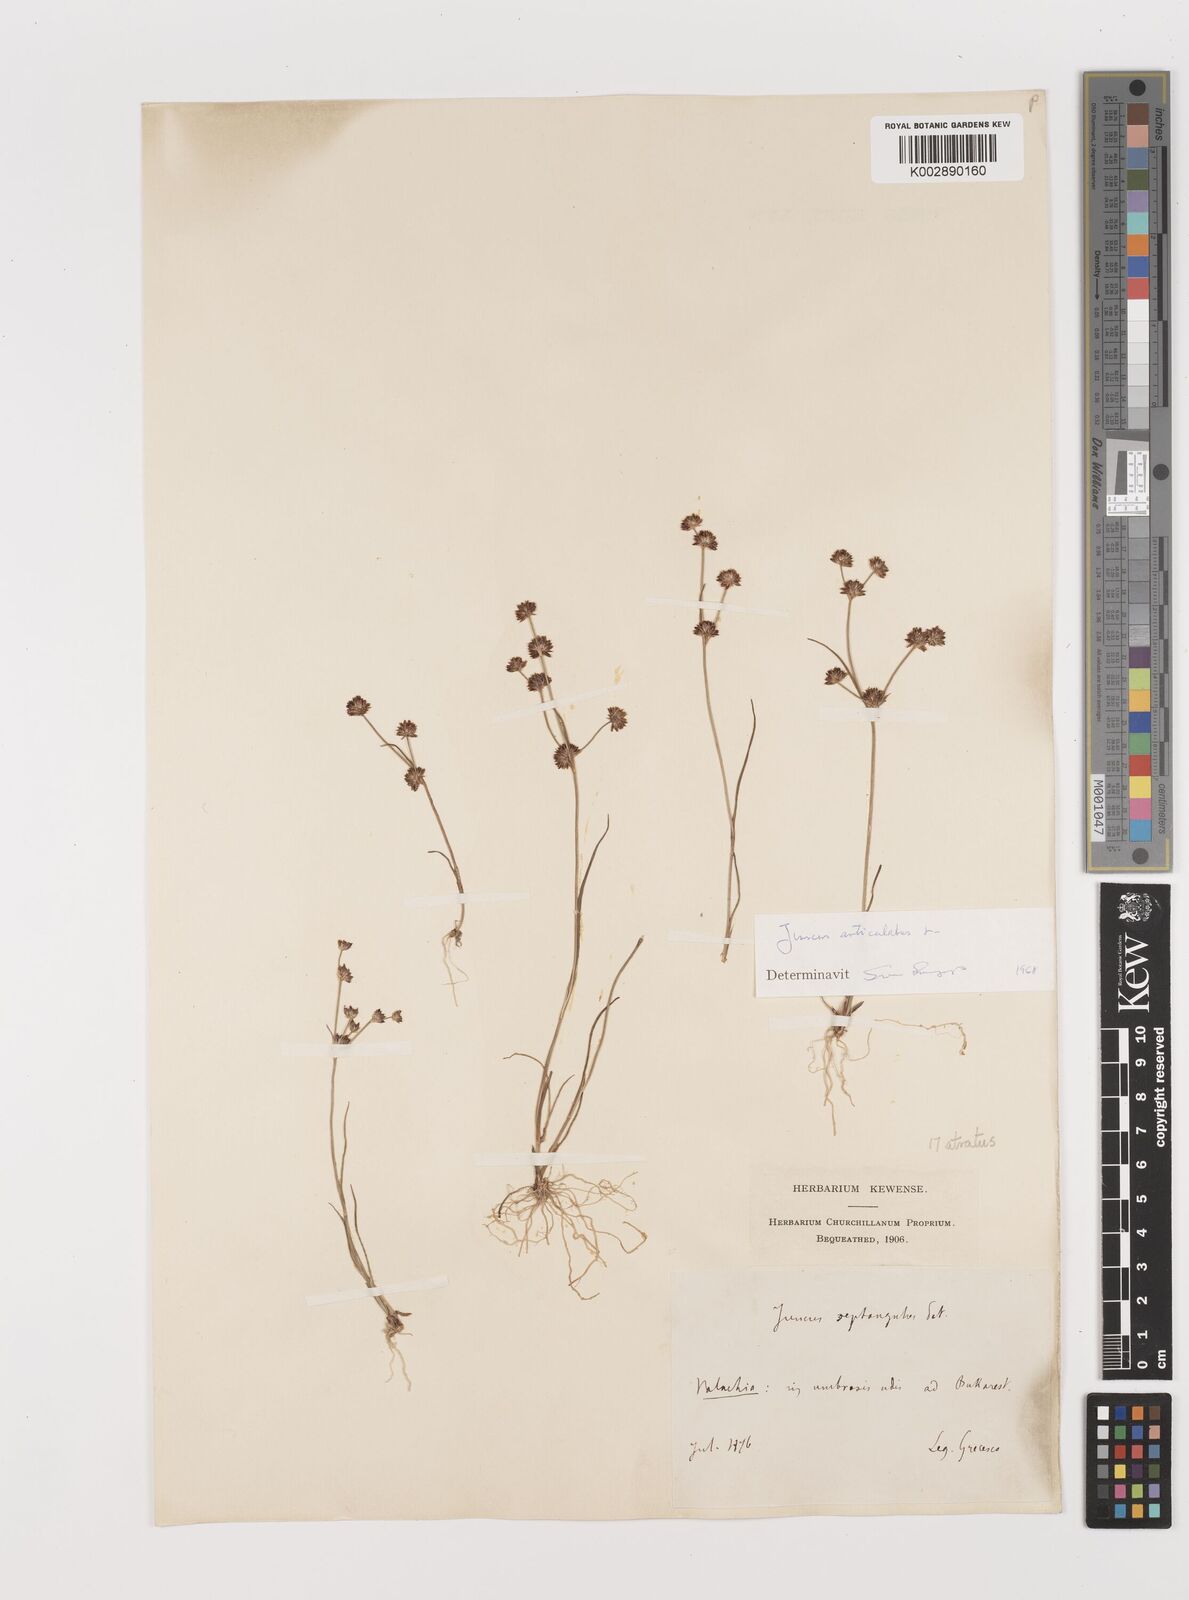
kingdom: Plantae
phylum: Tracheophyta
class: Liliopsida
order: Poales
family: Juncaceae
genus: Juncus
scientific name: Juncus articulatus
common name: Jointed rush
